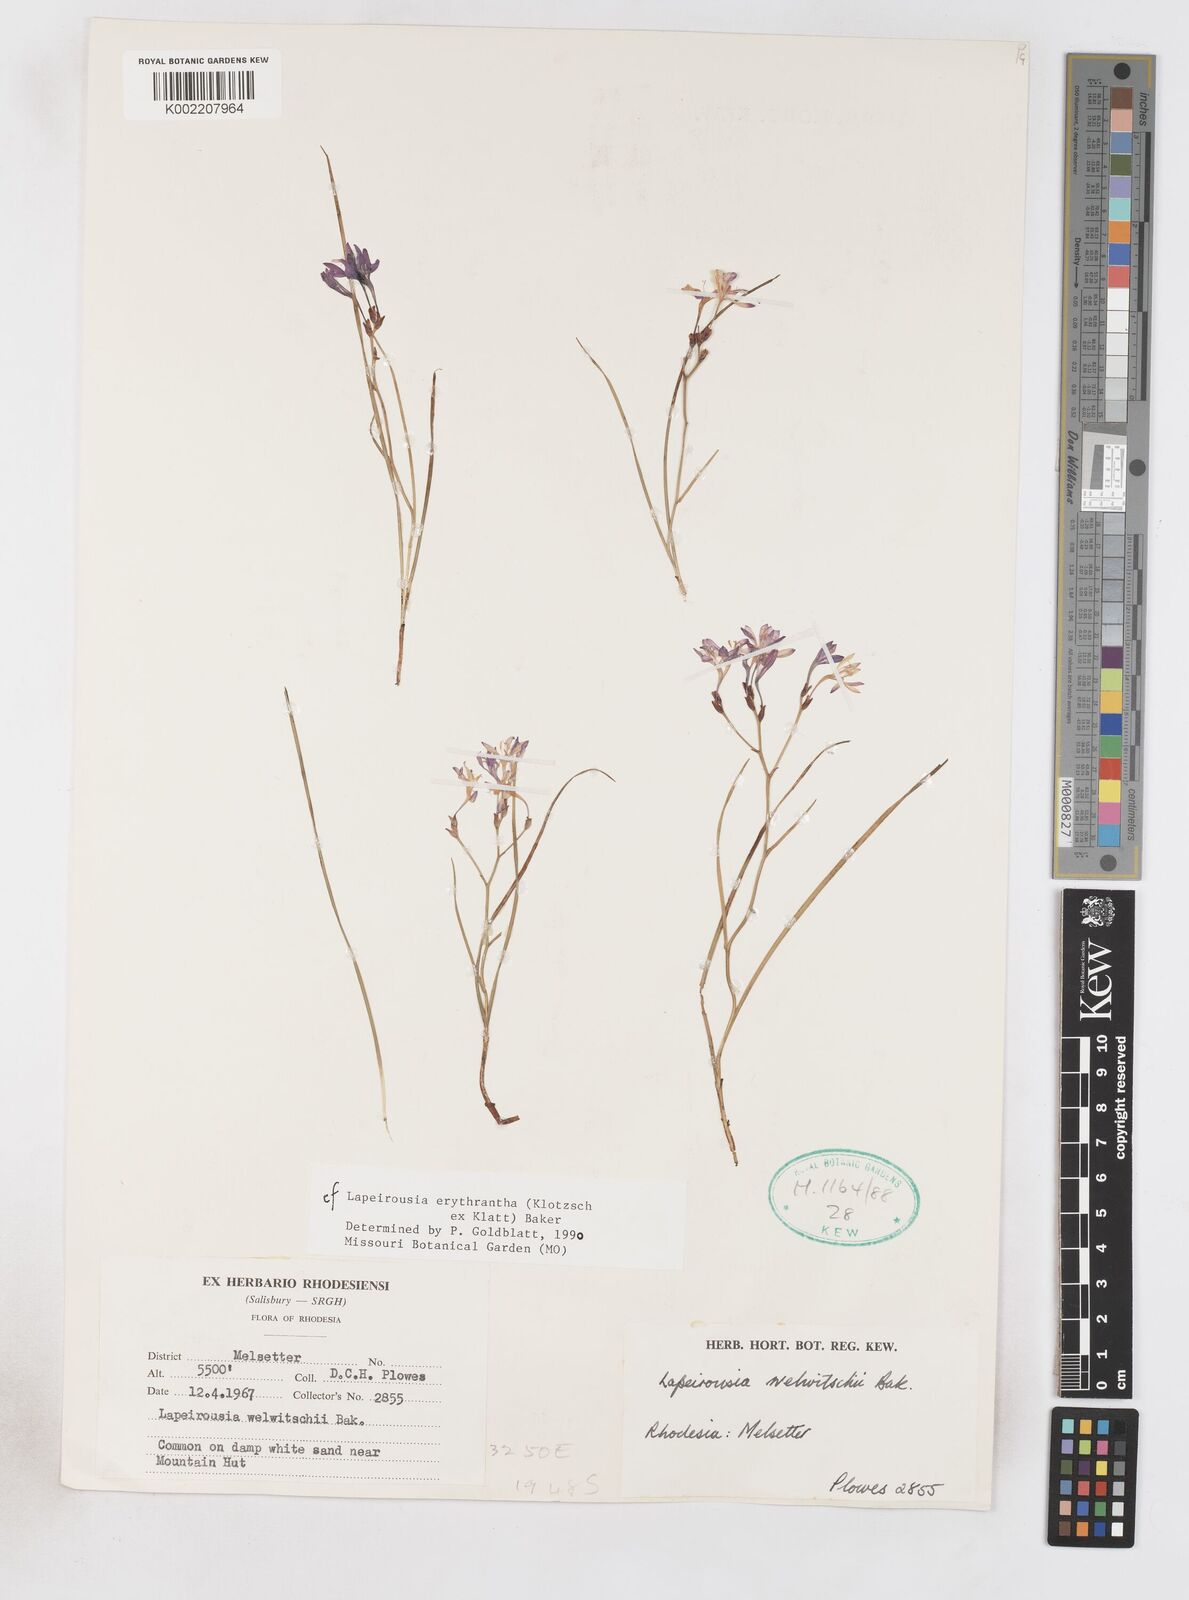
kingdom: Plantae
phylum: Tracheophyta
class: Liliopsida
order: Asparagales
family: Iridaceae
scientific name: Iridaceae
